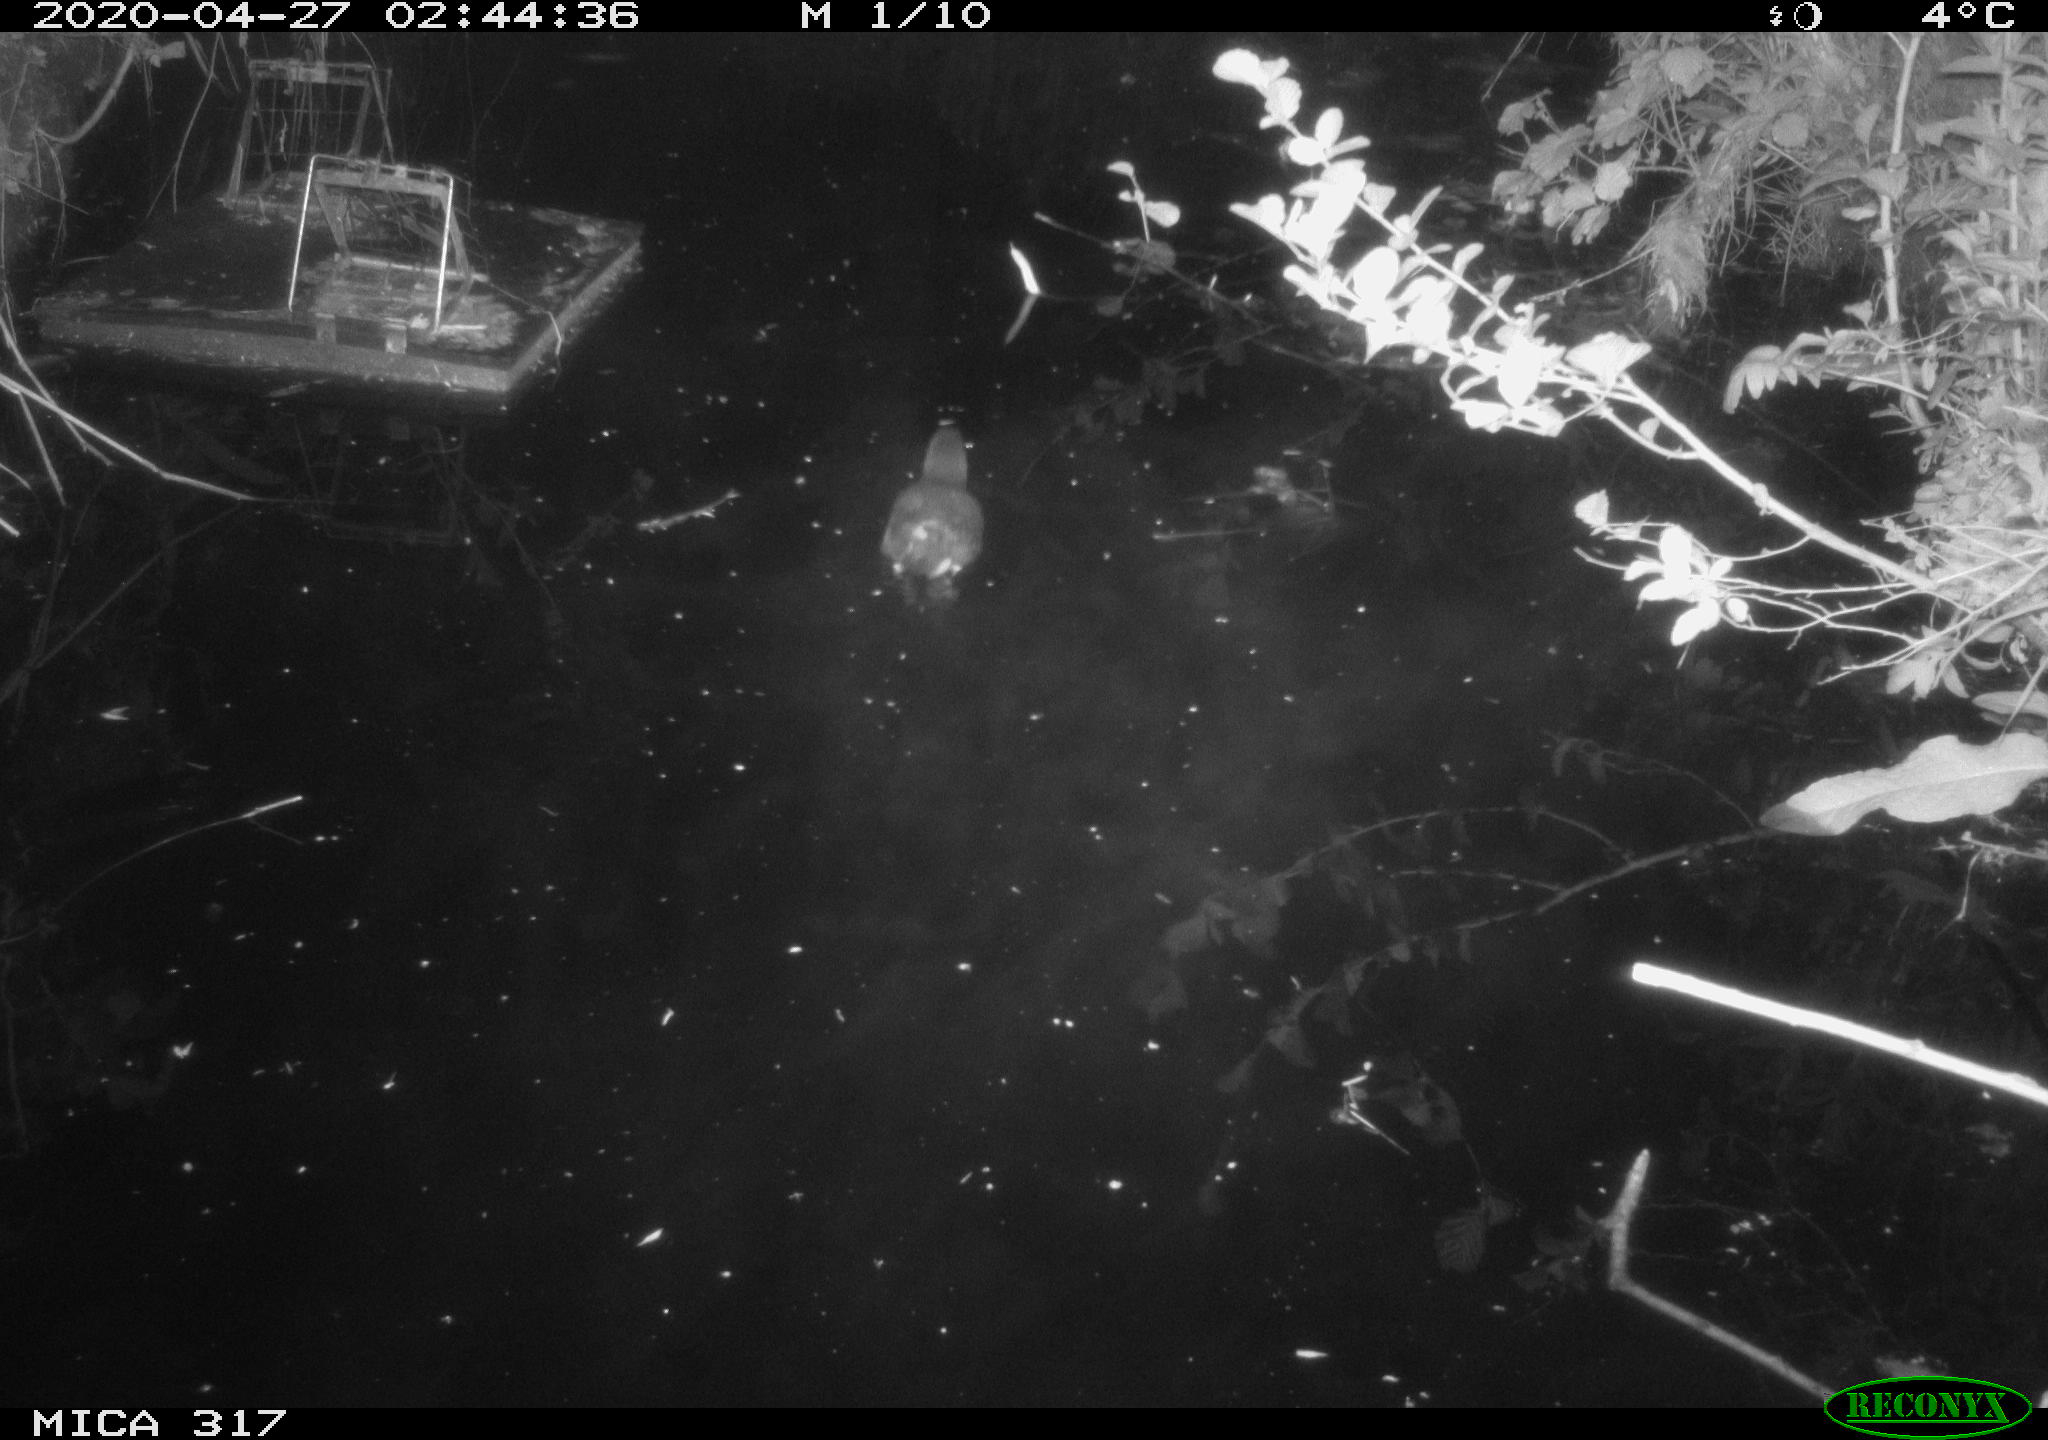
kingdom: Animalia
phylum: Chordata
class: Aves
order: Gruiformes
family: Rallidae
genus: Gallinula
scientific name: Gallinula chloropus
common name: Common moorhen
